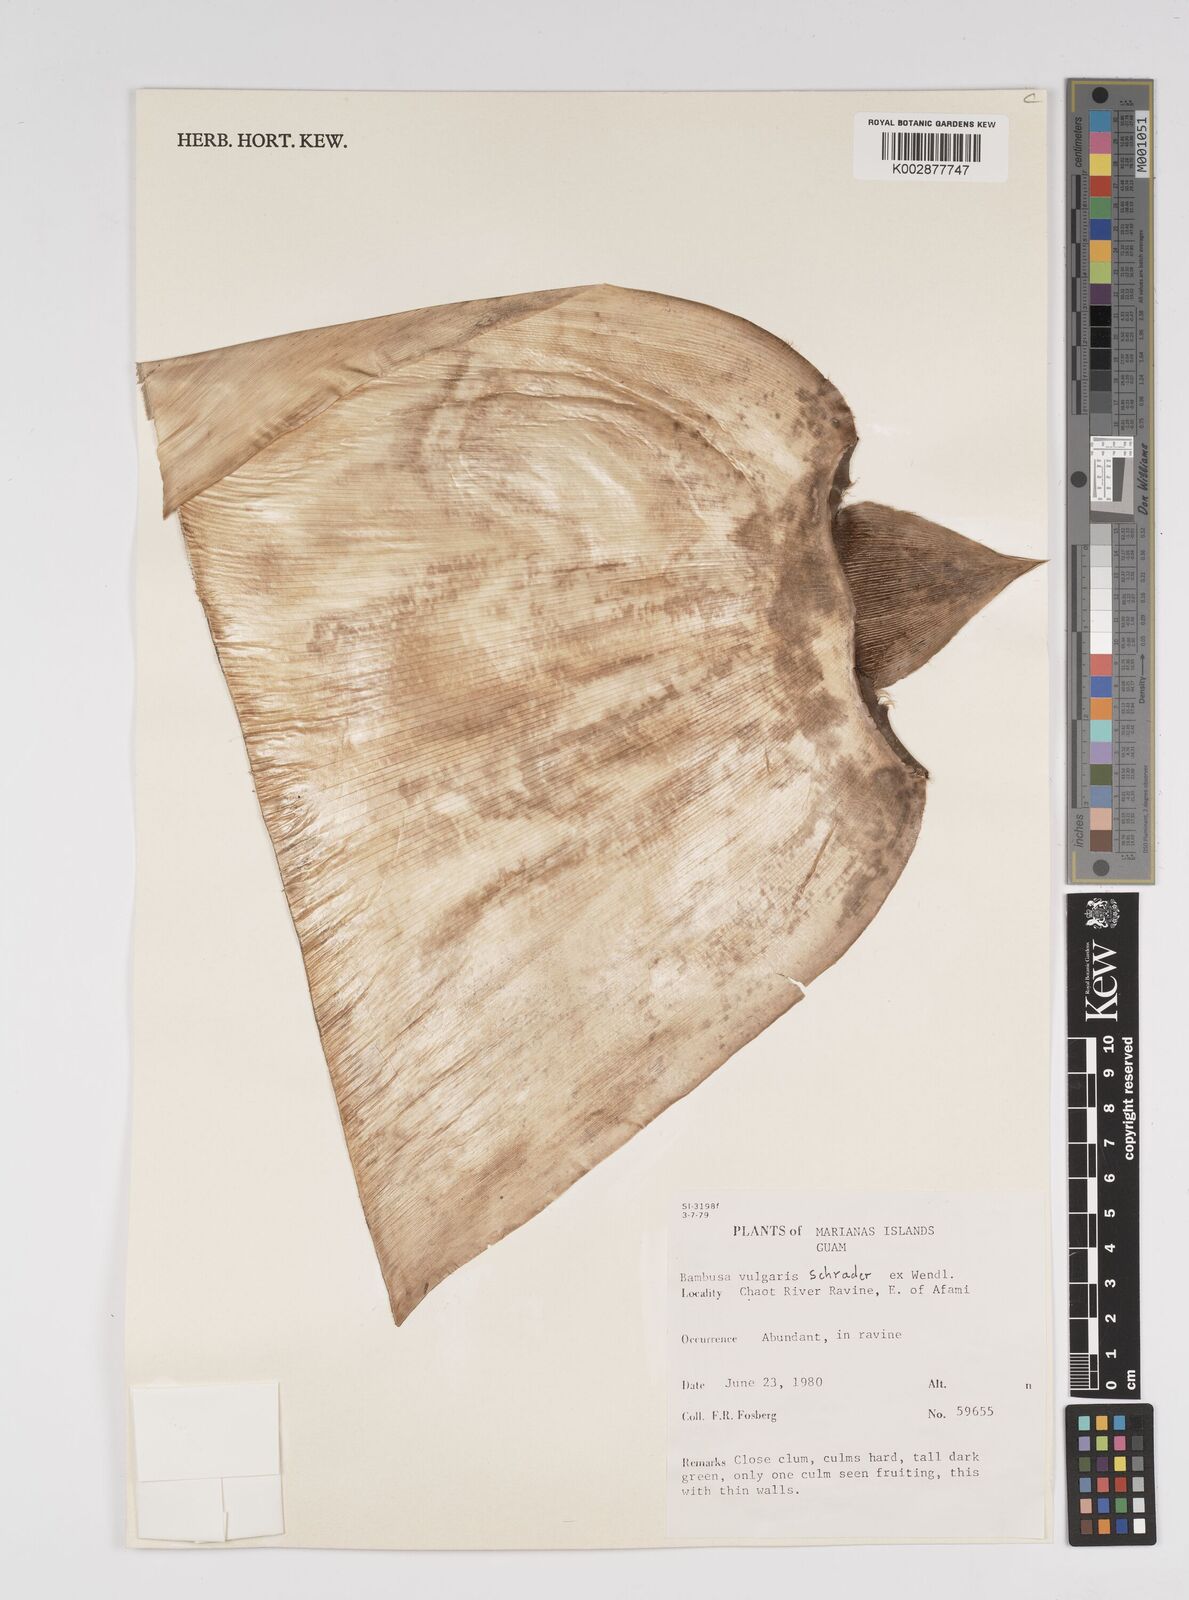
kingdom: Plantae
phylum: Tracheophyta
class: Liliopsida
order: Poales
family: Poaceae
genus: Bambusa
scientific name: Bambusa vulgaris
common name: Common bamboo
